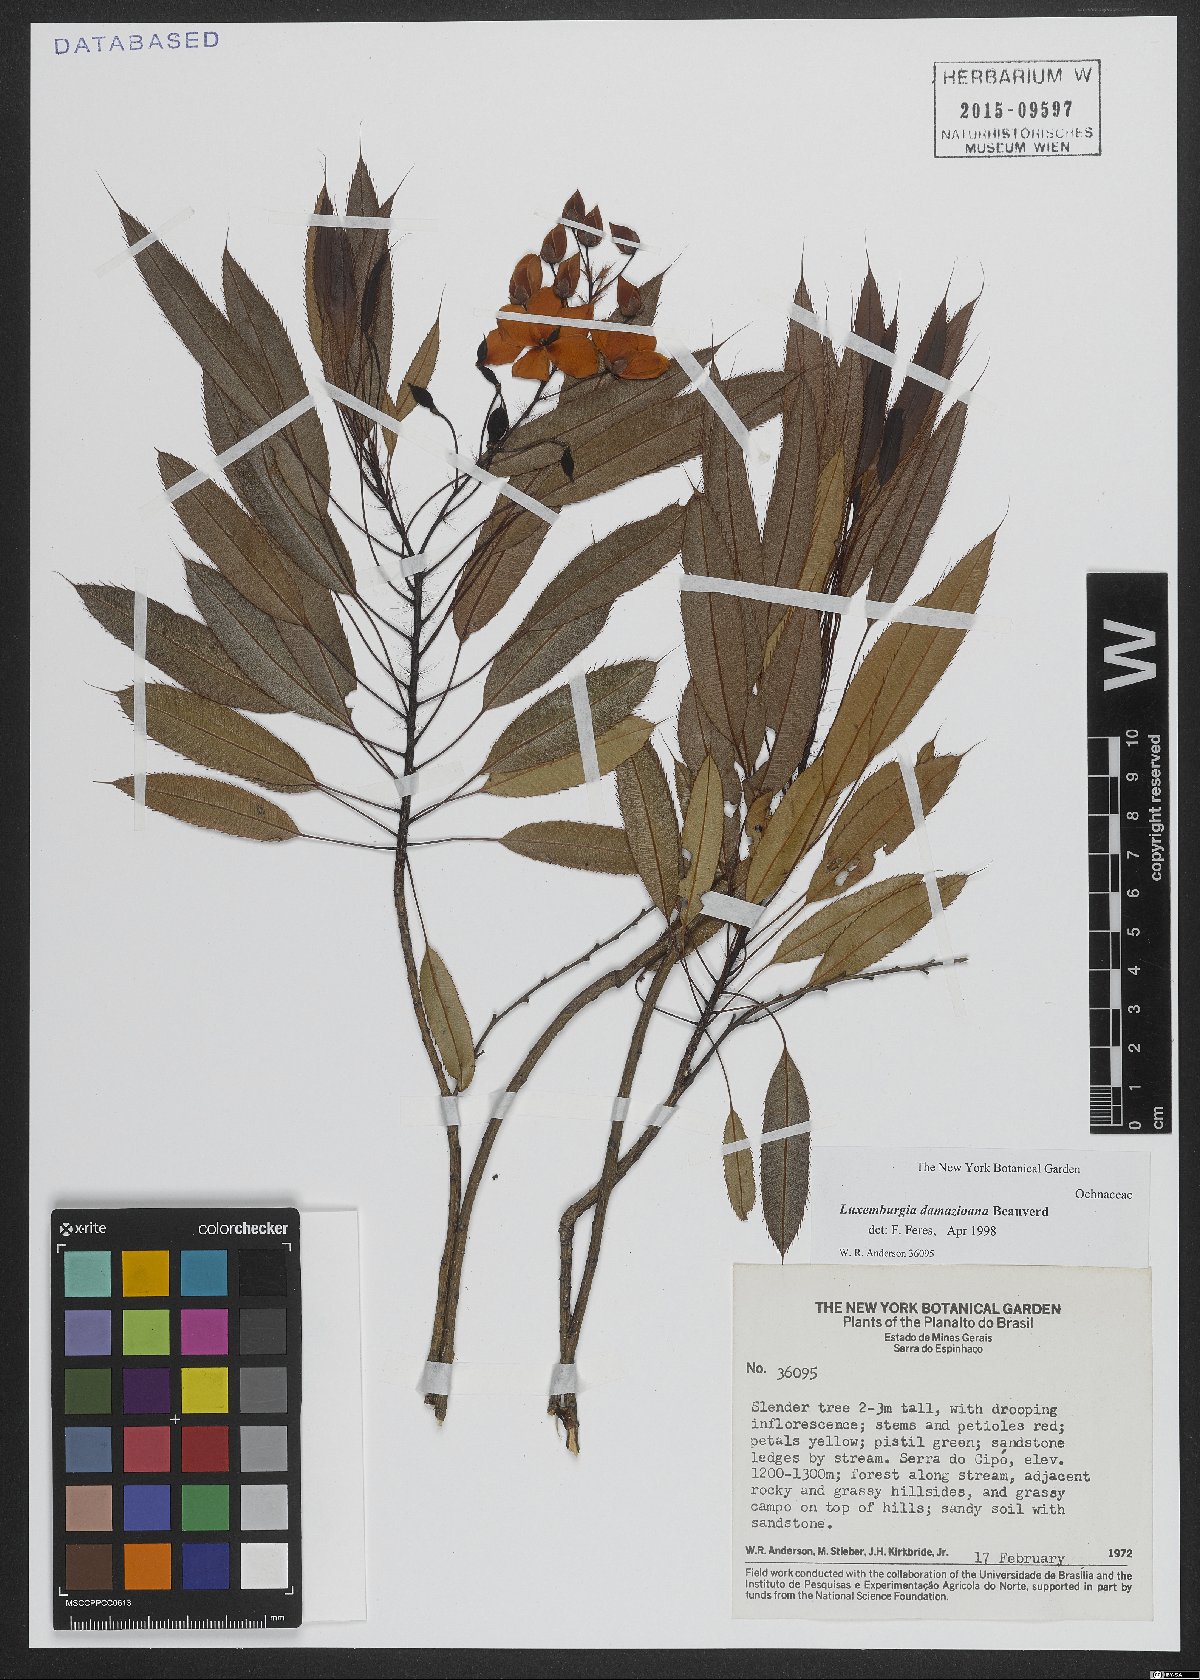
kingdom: Plantae
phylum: Tracheophyta
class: Magnoliopsida
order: Malpighiales
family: Ochnaceae
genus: Luxemburgia
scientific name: Luxemburgia damazioana
